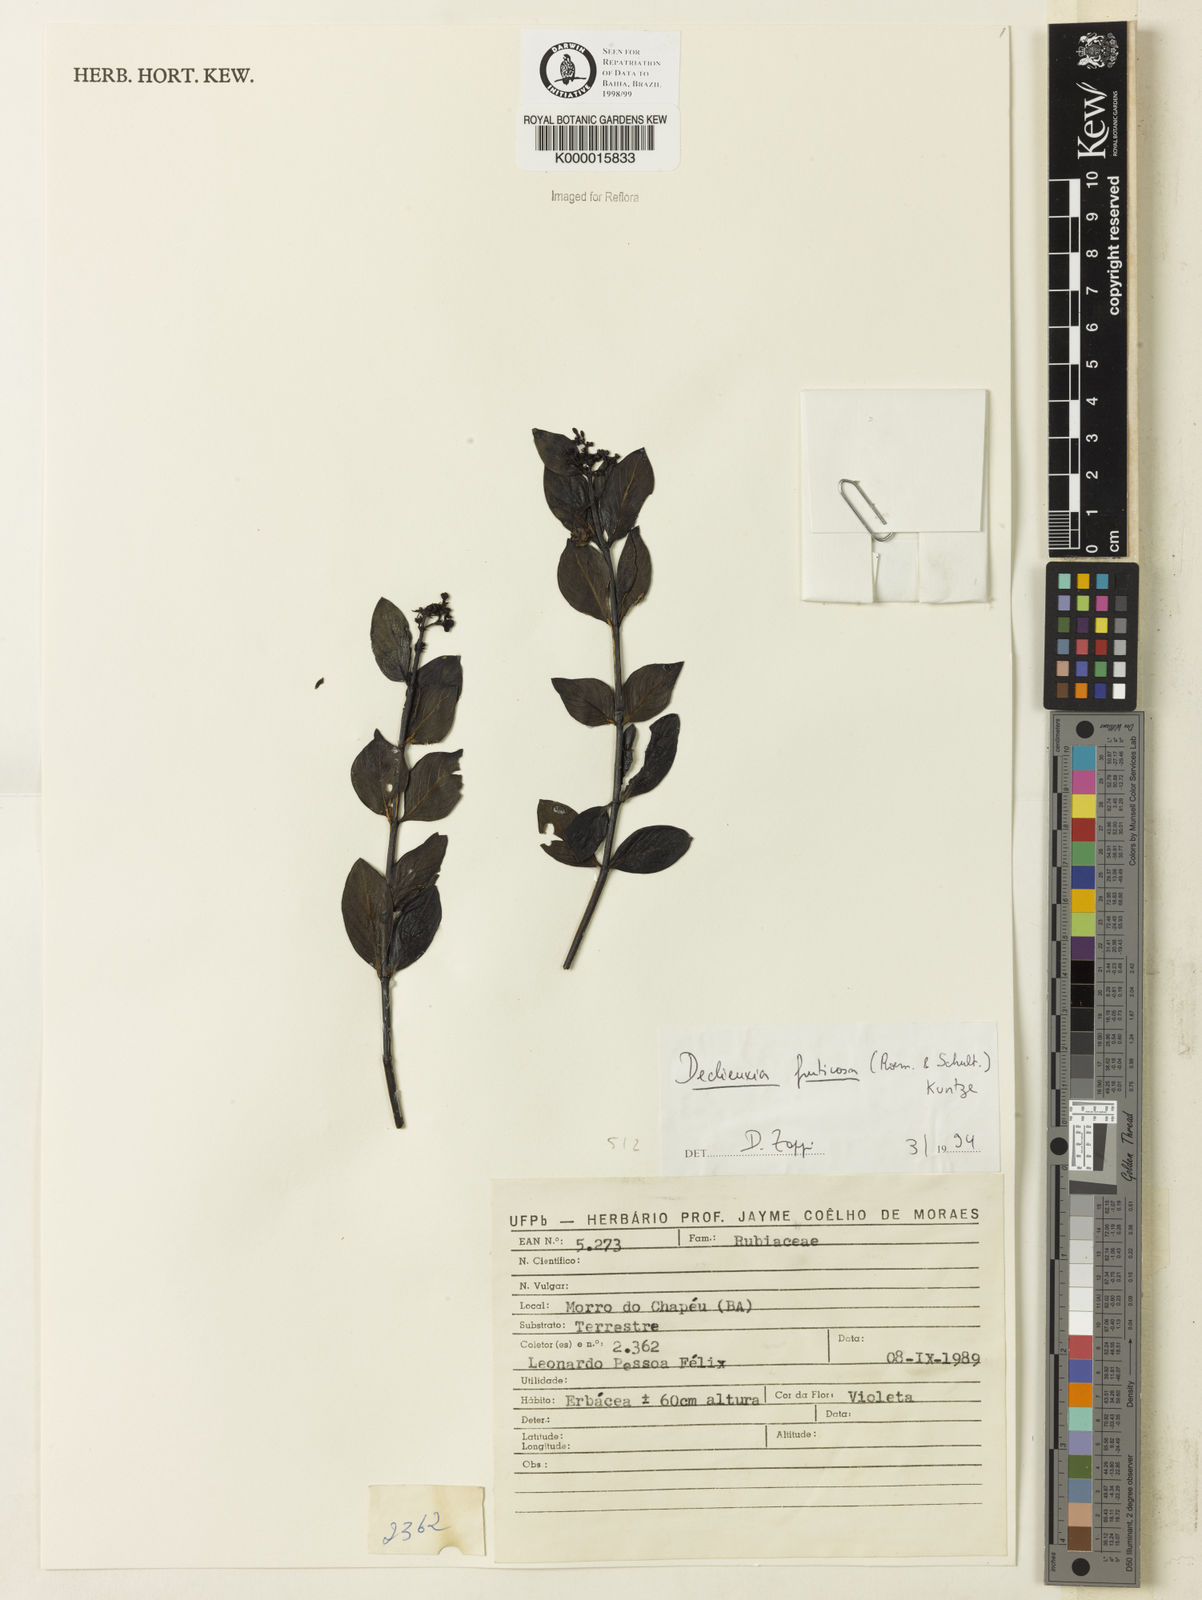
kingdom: Plantae
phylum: Tracheophyta
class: Magnoliopsida
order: Gentianales
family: Rubiaceae
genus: Declieuxia
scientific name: Declieuxia fruticosa
